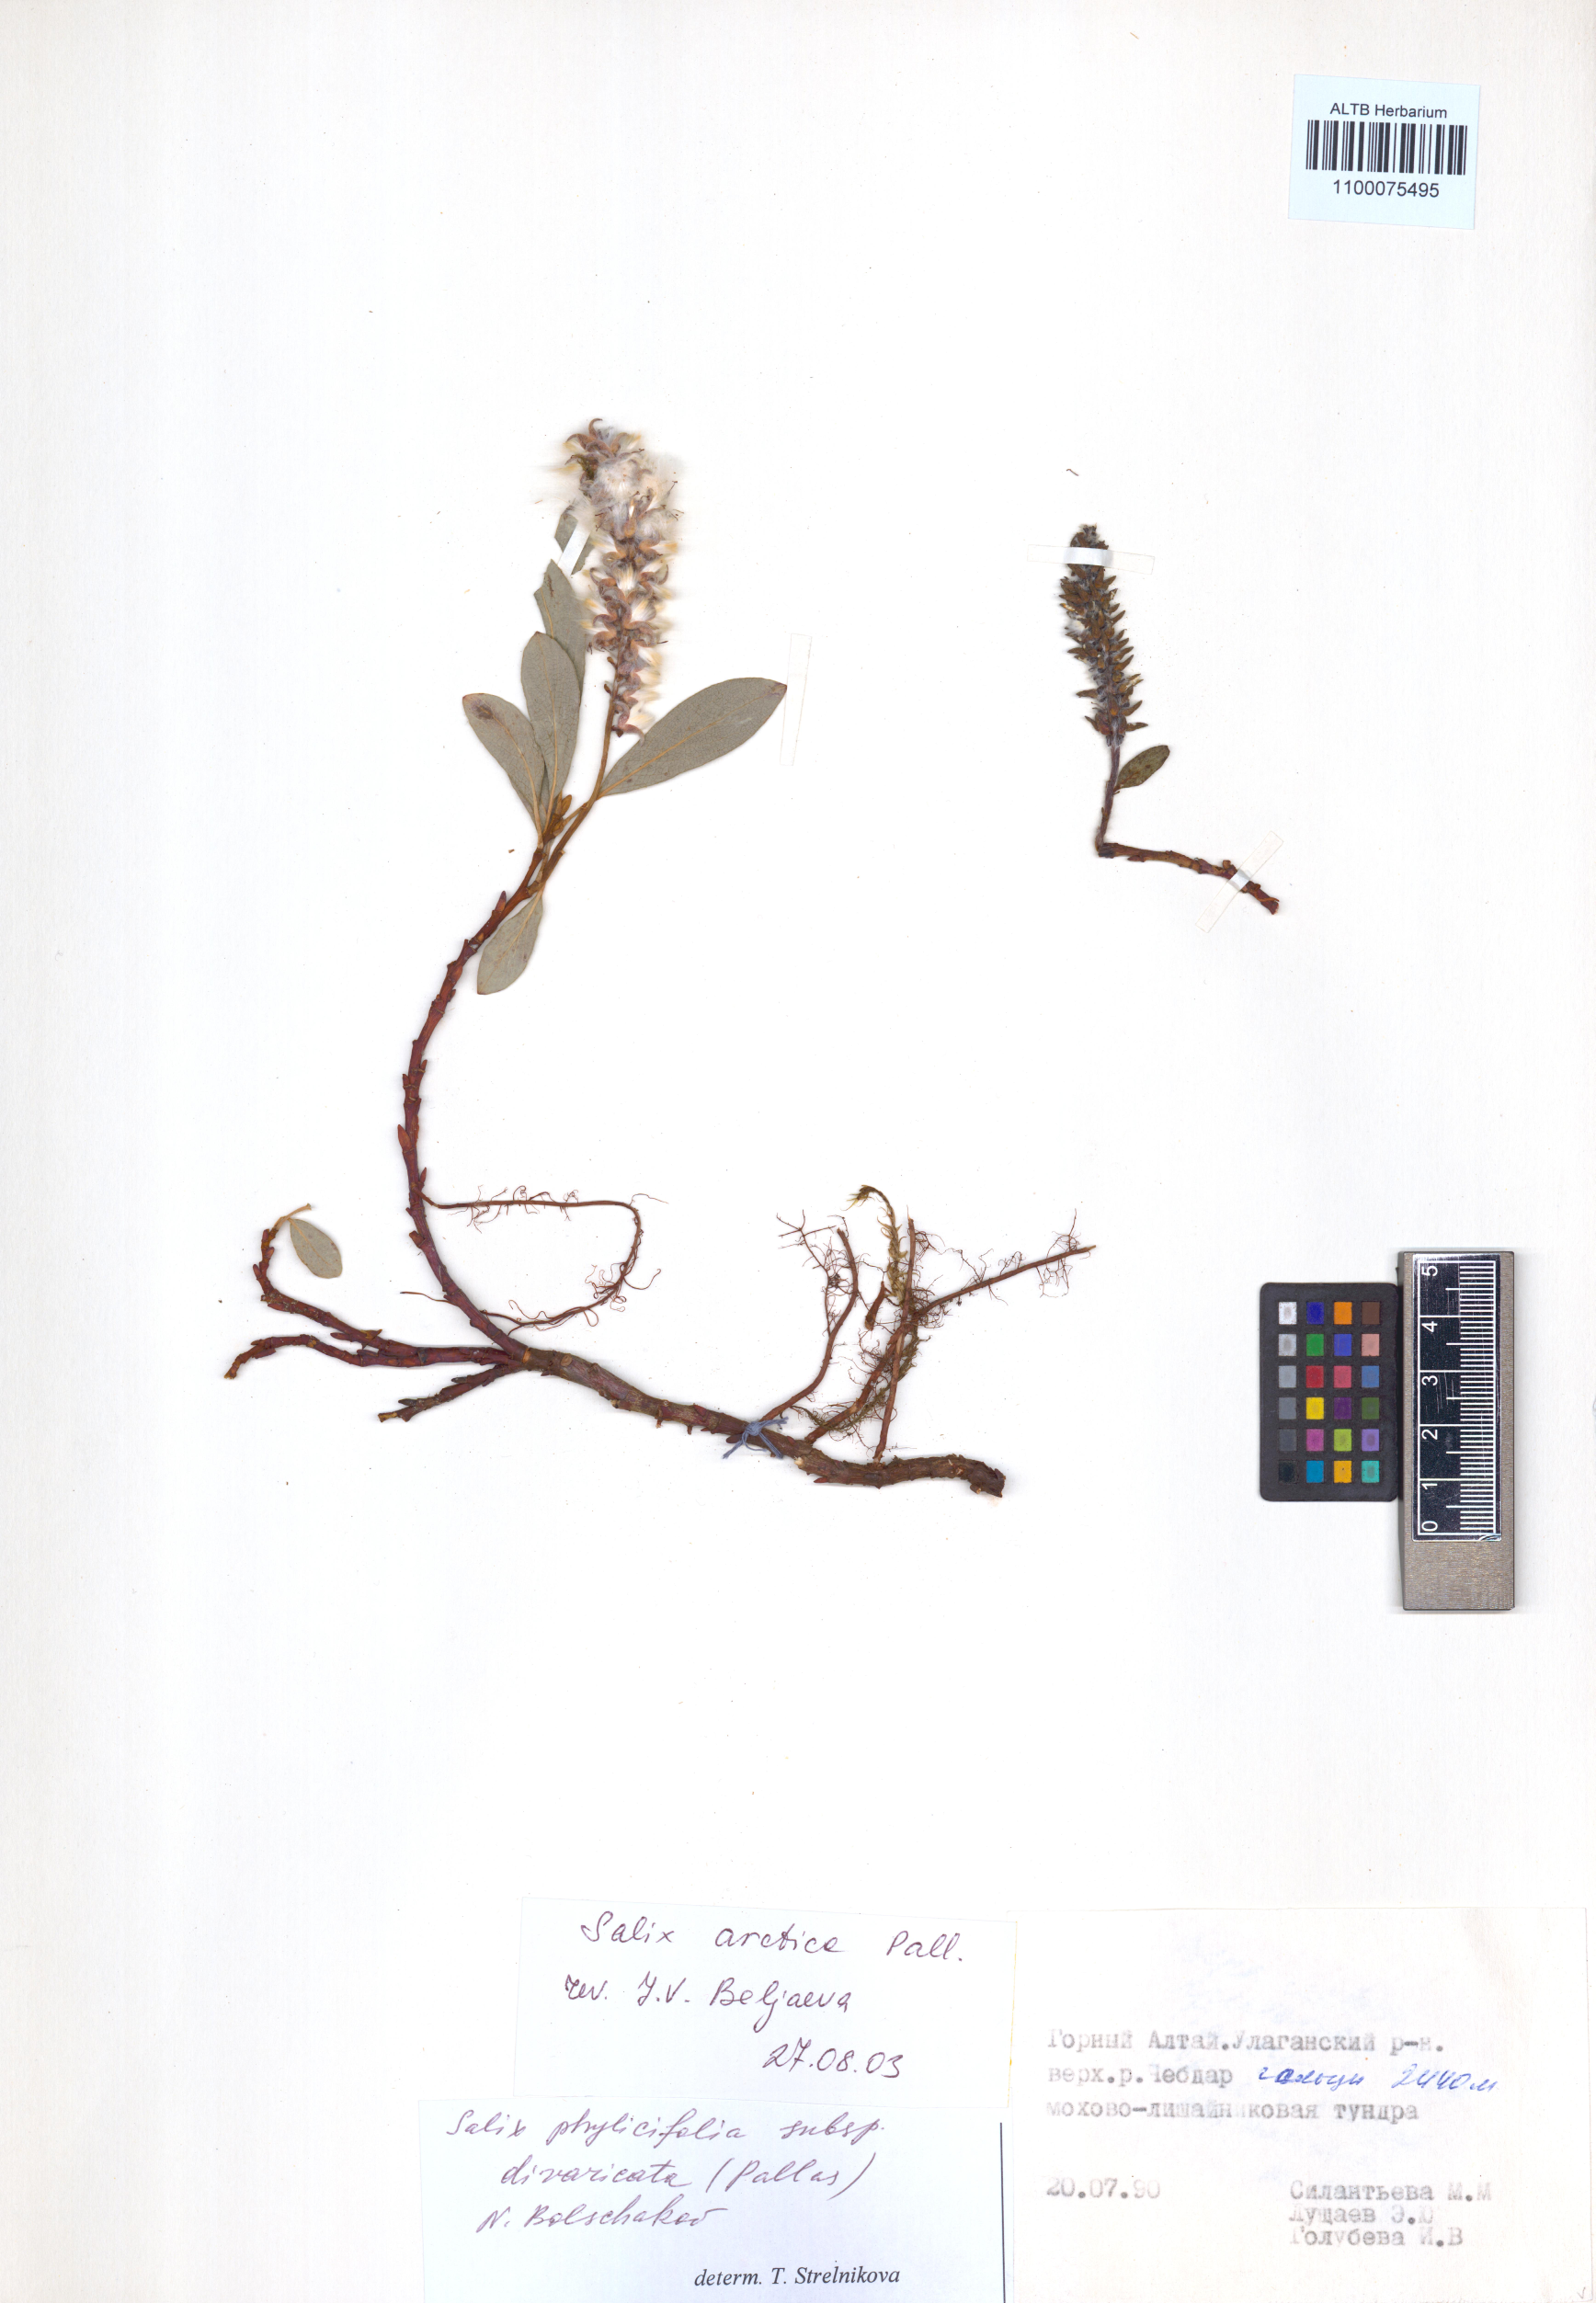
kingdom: Plantae
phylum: Tracheophyta
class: Magnoliopsida
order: Malpighiales
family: Salicaceae
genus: Salix
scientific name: Salix arctica
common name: Arctic willow
